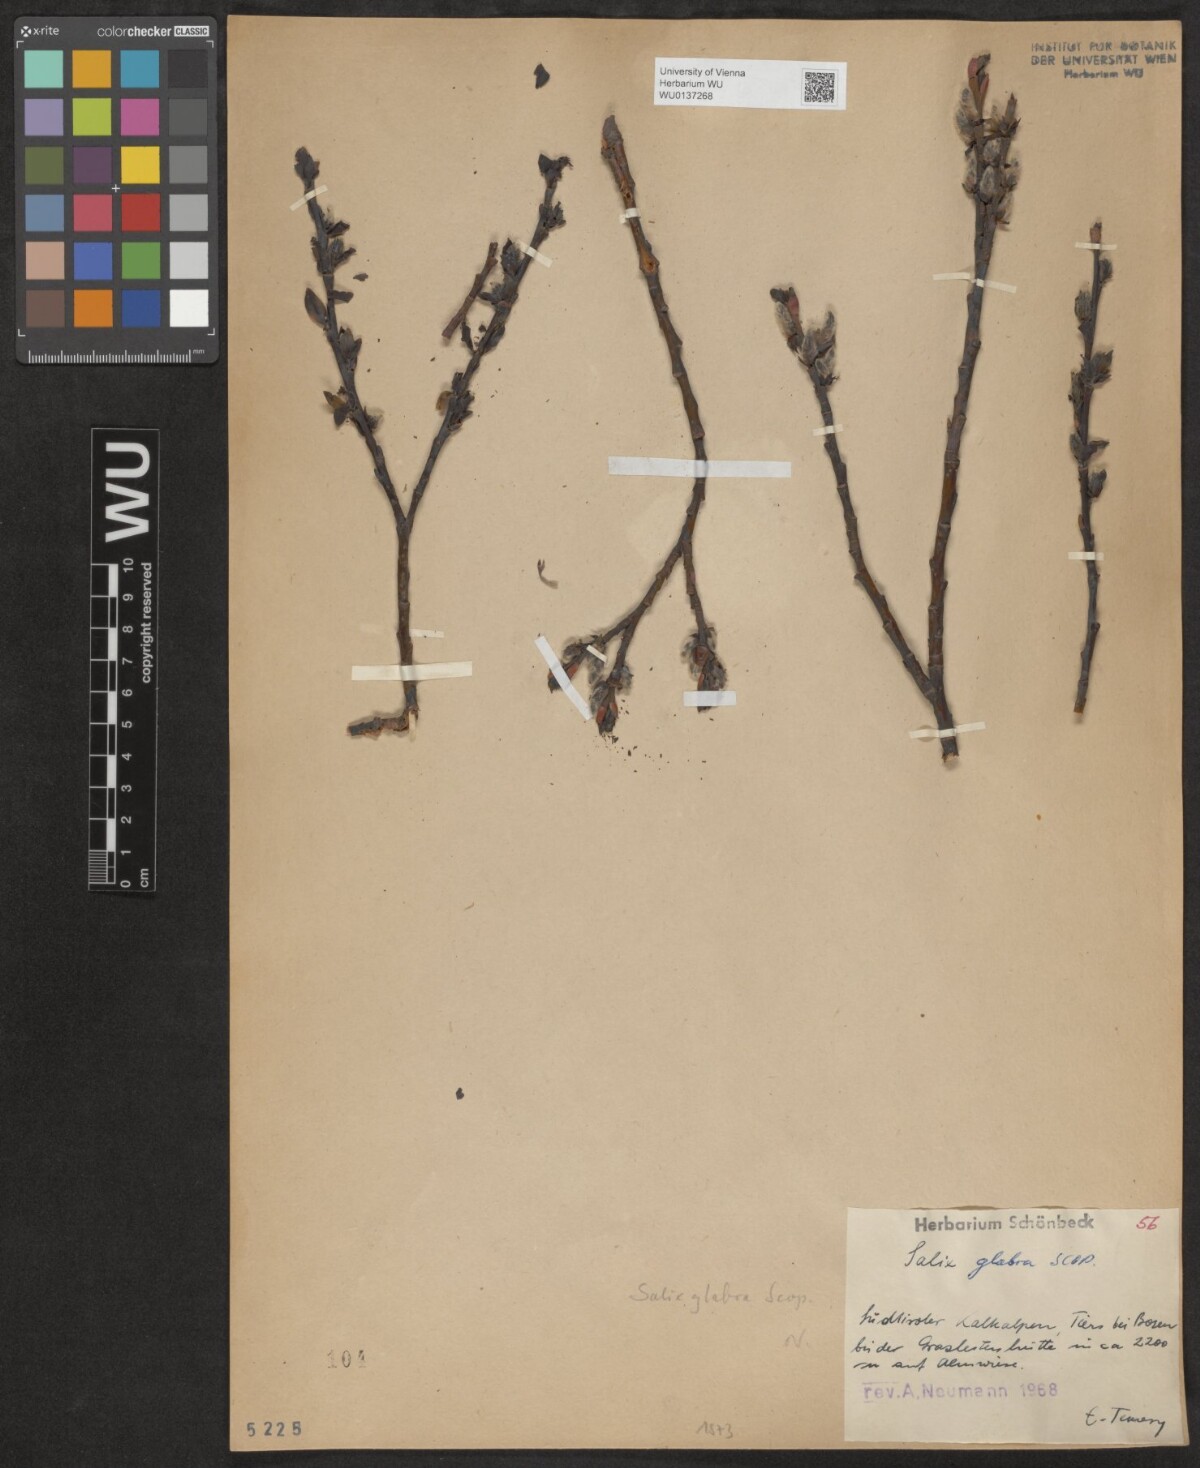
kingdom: Plantae
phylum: Tracheophyta
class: Magnoliopsida
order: Malpighiales
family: Salicaceae
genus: Salix
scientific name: Salix glabra
